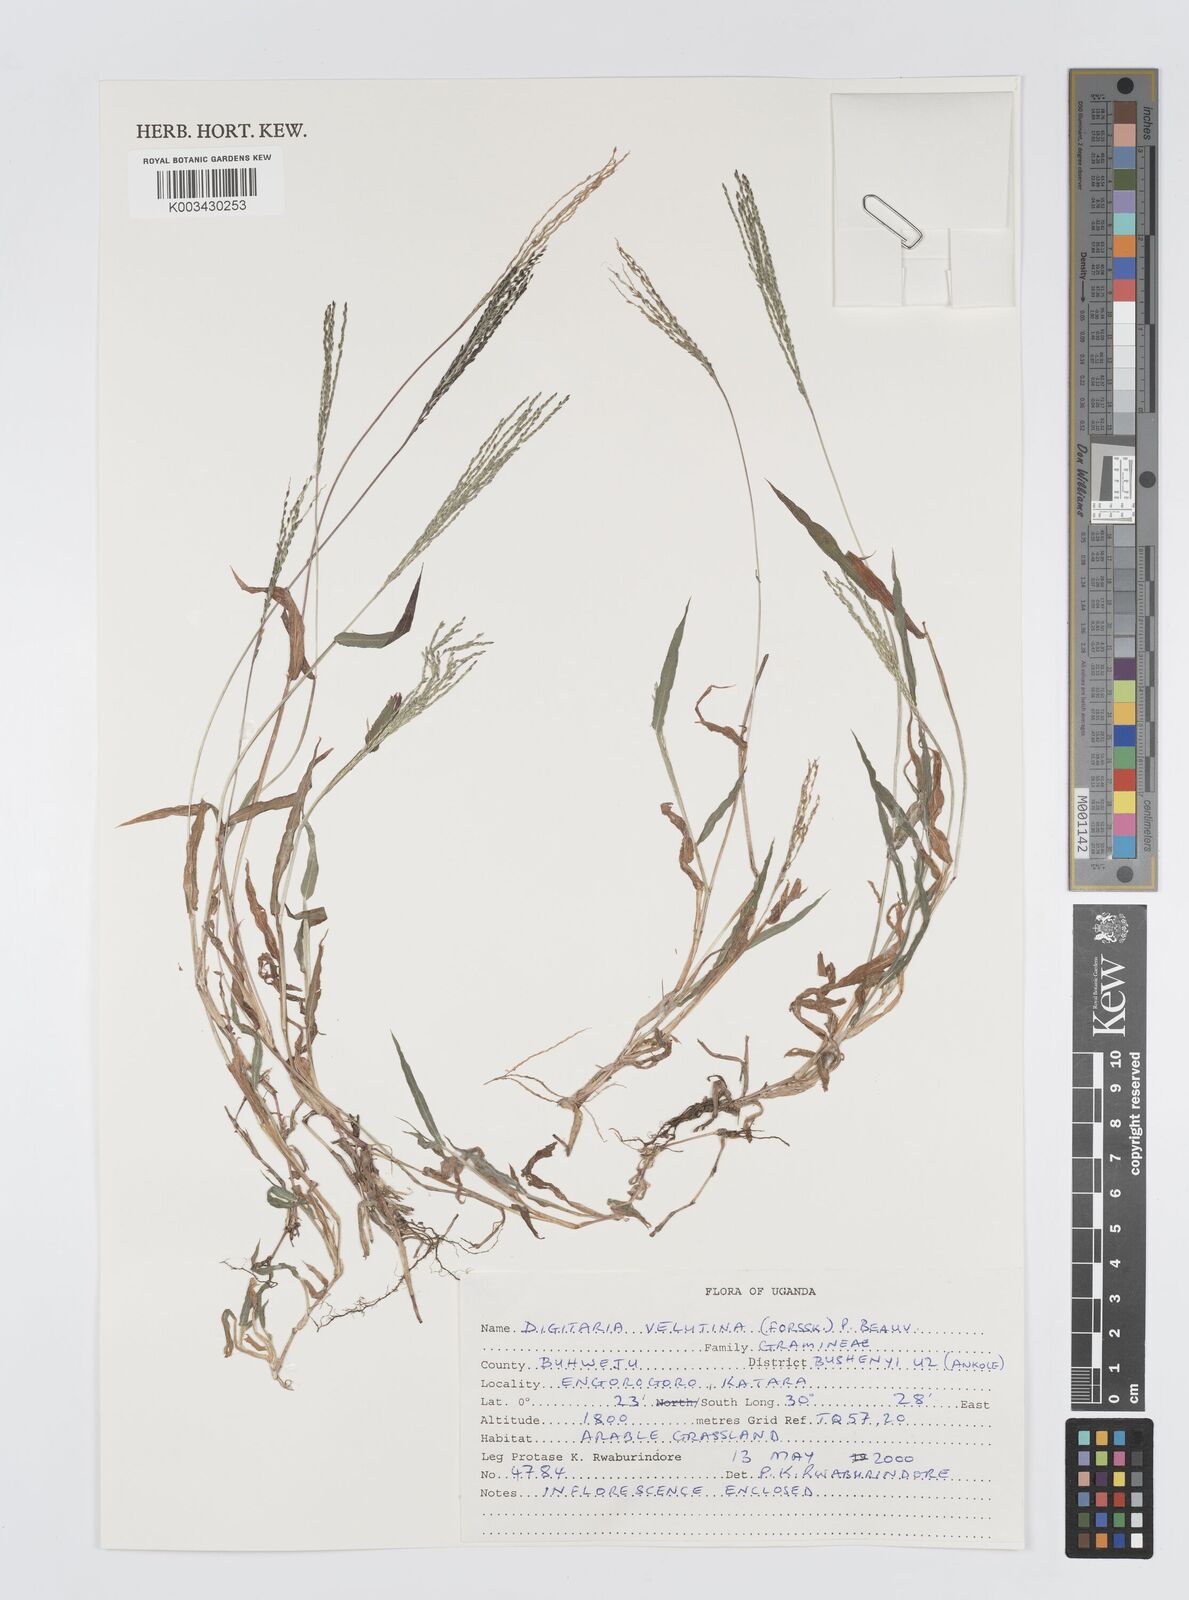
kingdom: Plantae
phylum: Tracheophyta
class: Liliopsida
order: Poales
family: Poaceae
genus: Digitaria
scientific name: Digitaria velutina
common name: Long-plume finger grass
